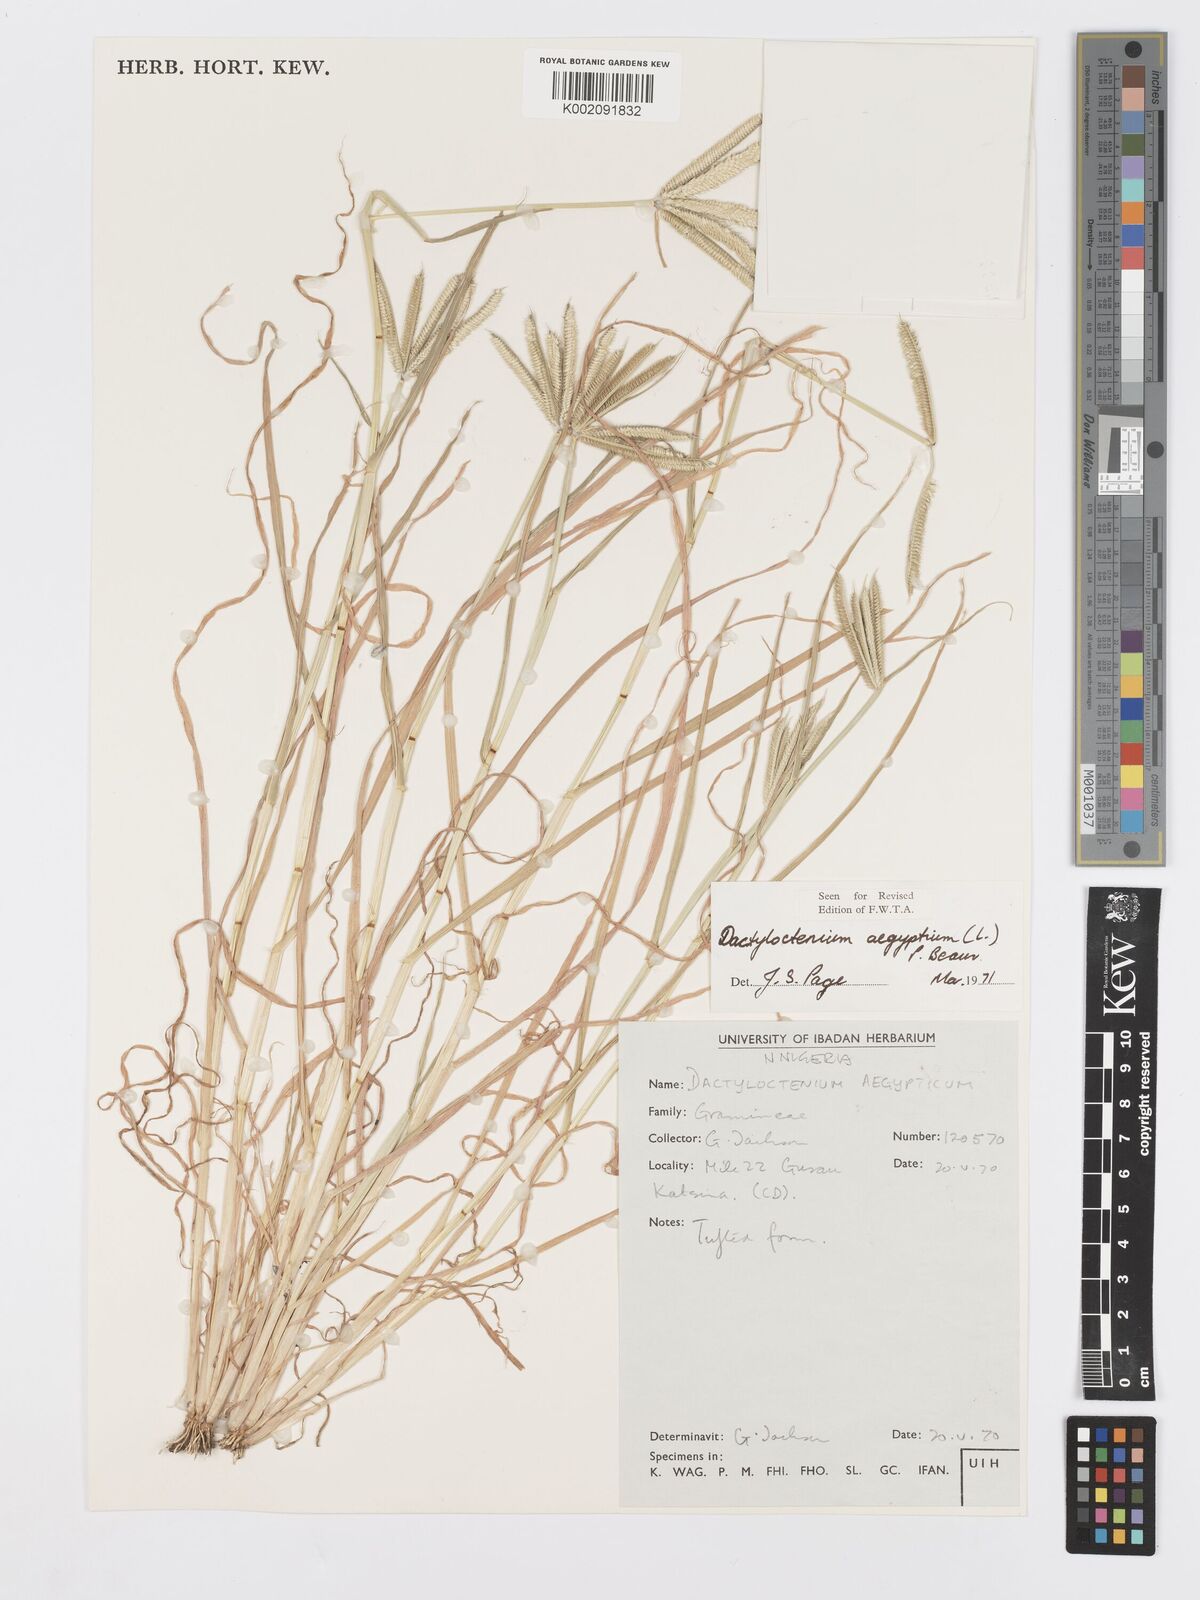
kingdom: Plantae
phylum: Tracheophyta
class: Liliopsida
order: Poales
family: Poaceae
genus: Dactyloctenium
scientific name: Dactyloctenium aegyptium
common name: Egyptian grass
